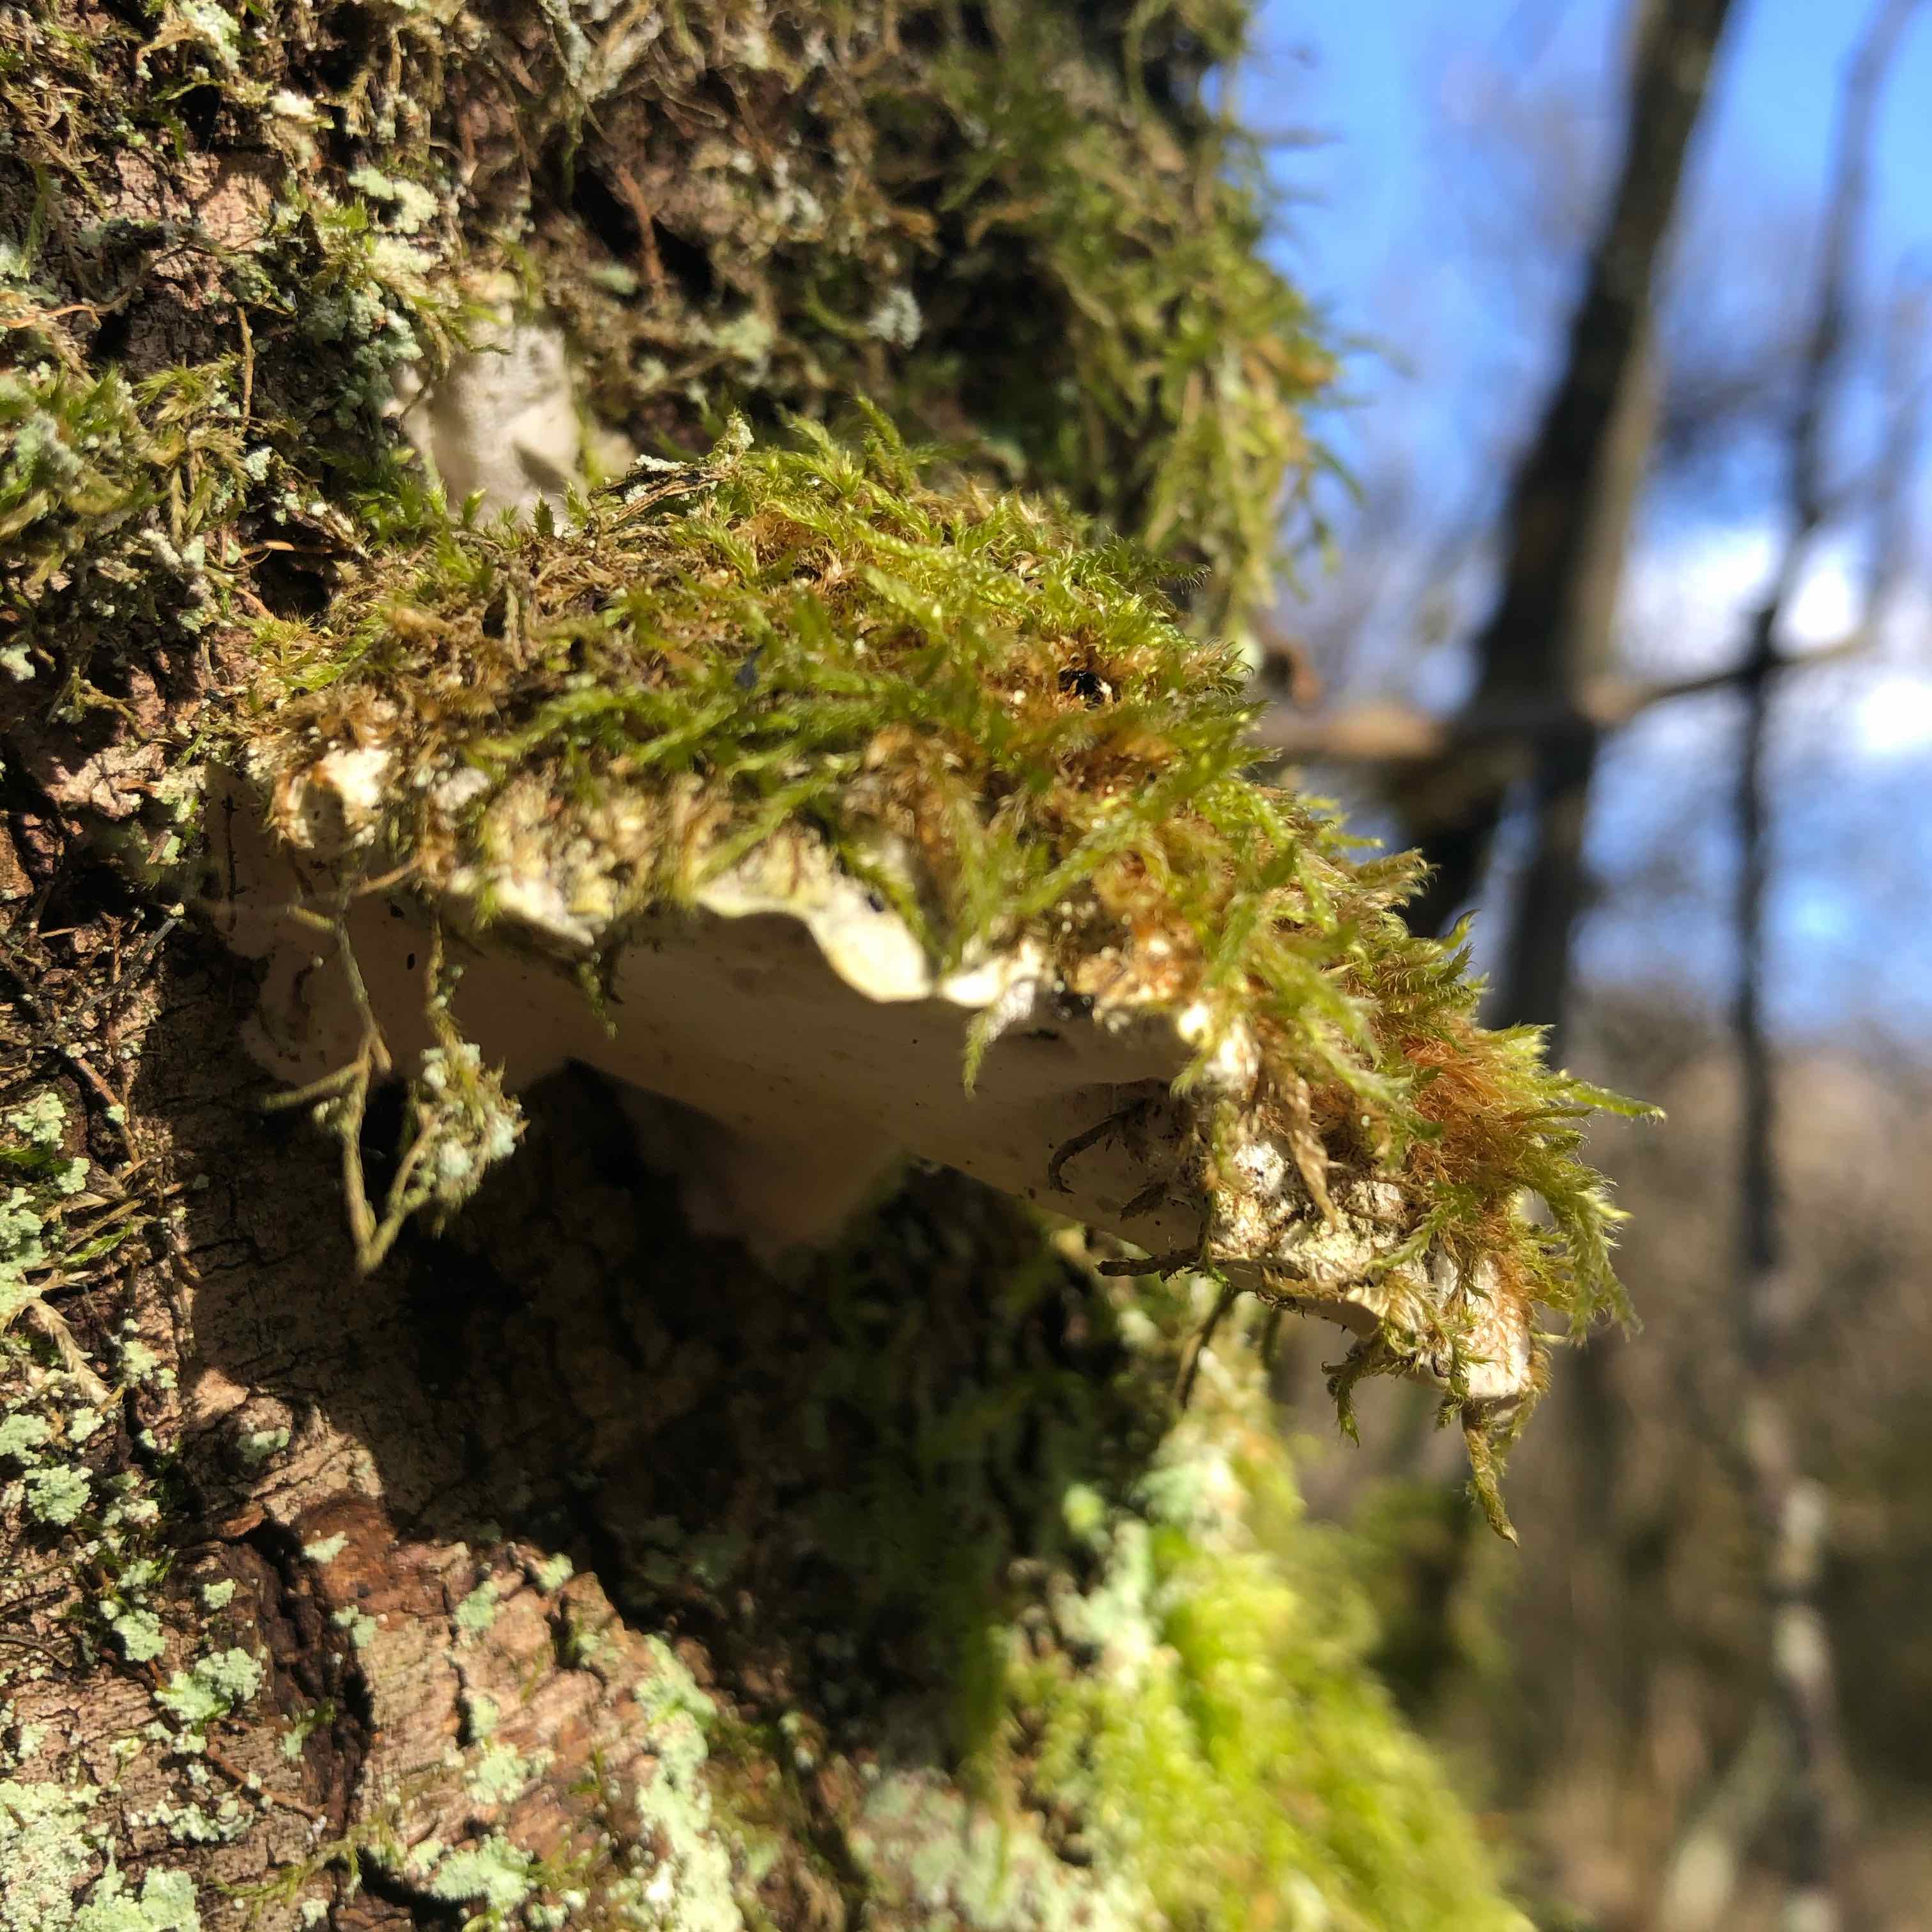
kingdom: Fungi
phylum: Basidiomycota
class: Agaricomycetes
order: Hymenochaetales
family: Oxyporaceae
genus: Oxyporus
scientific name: Oxyporus populinus
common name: sammenvokset trylleporesvamp
